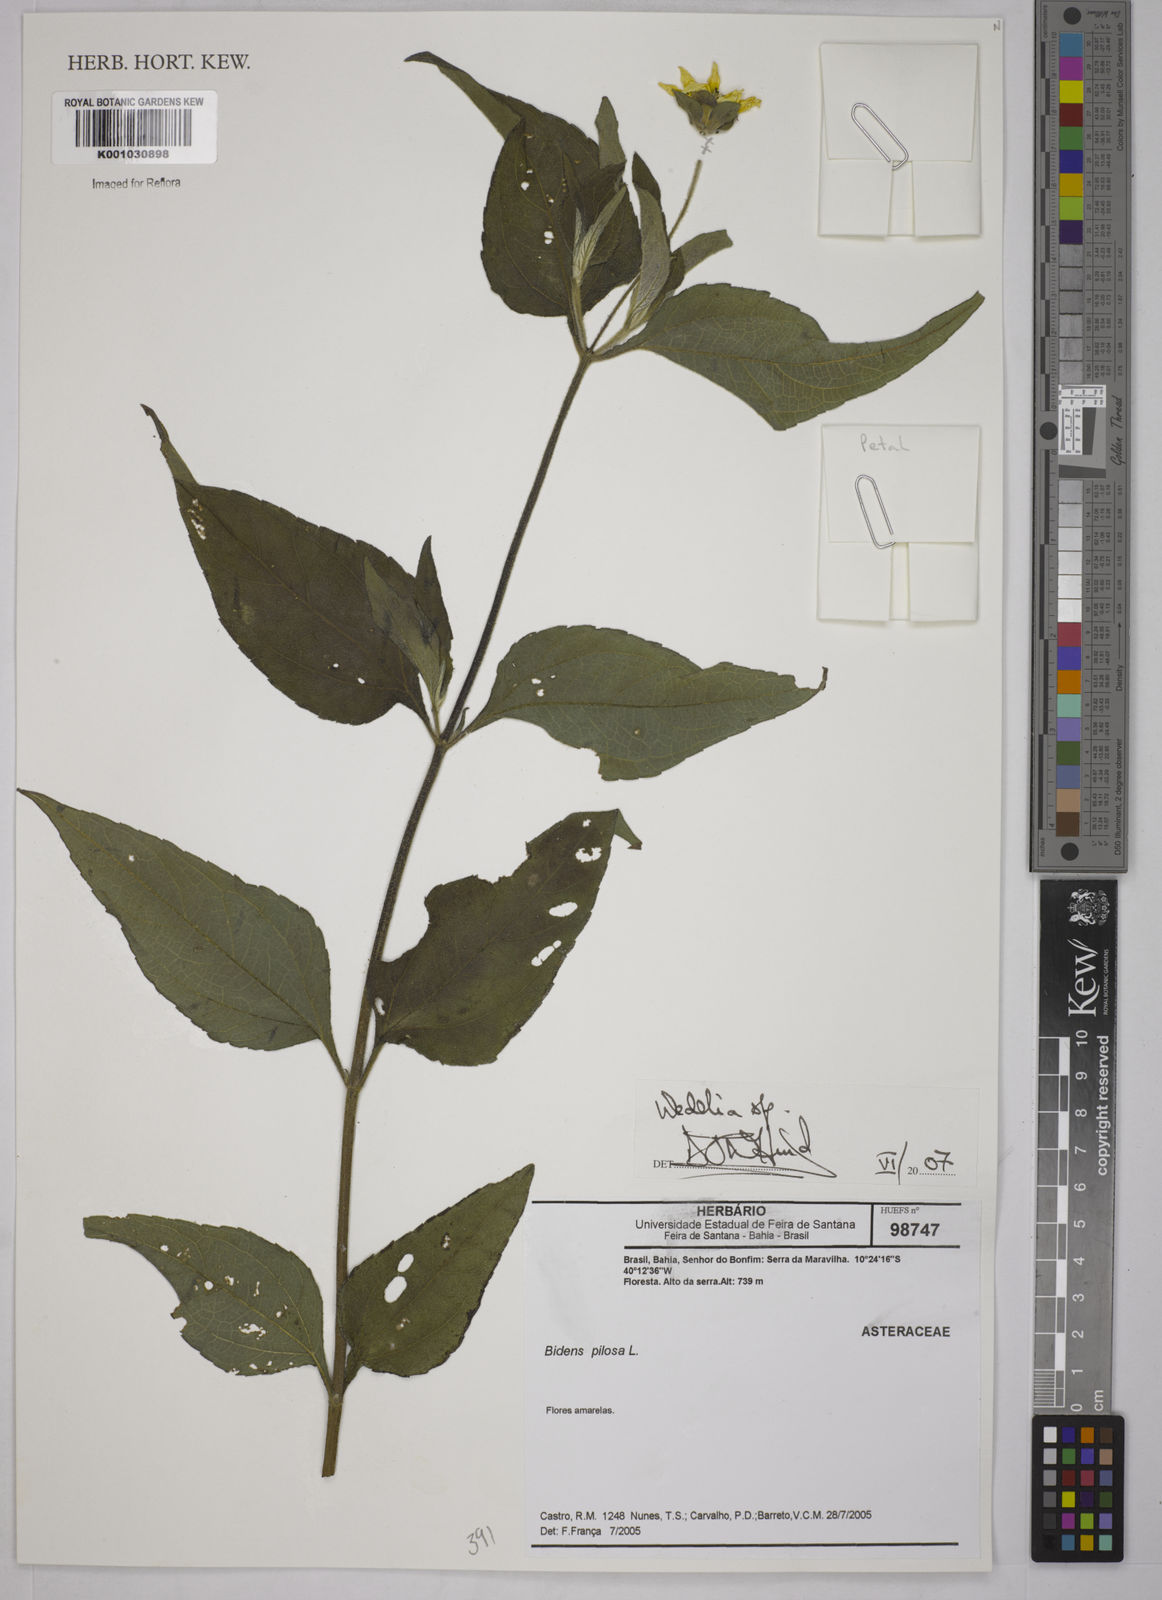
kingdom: Plantae
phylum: Tracheophyta
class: Magnoliopsida
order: Asterales
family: Asteraceae
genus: Wedelia
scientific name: Wedelia
